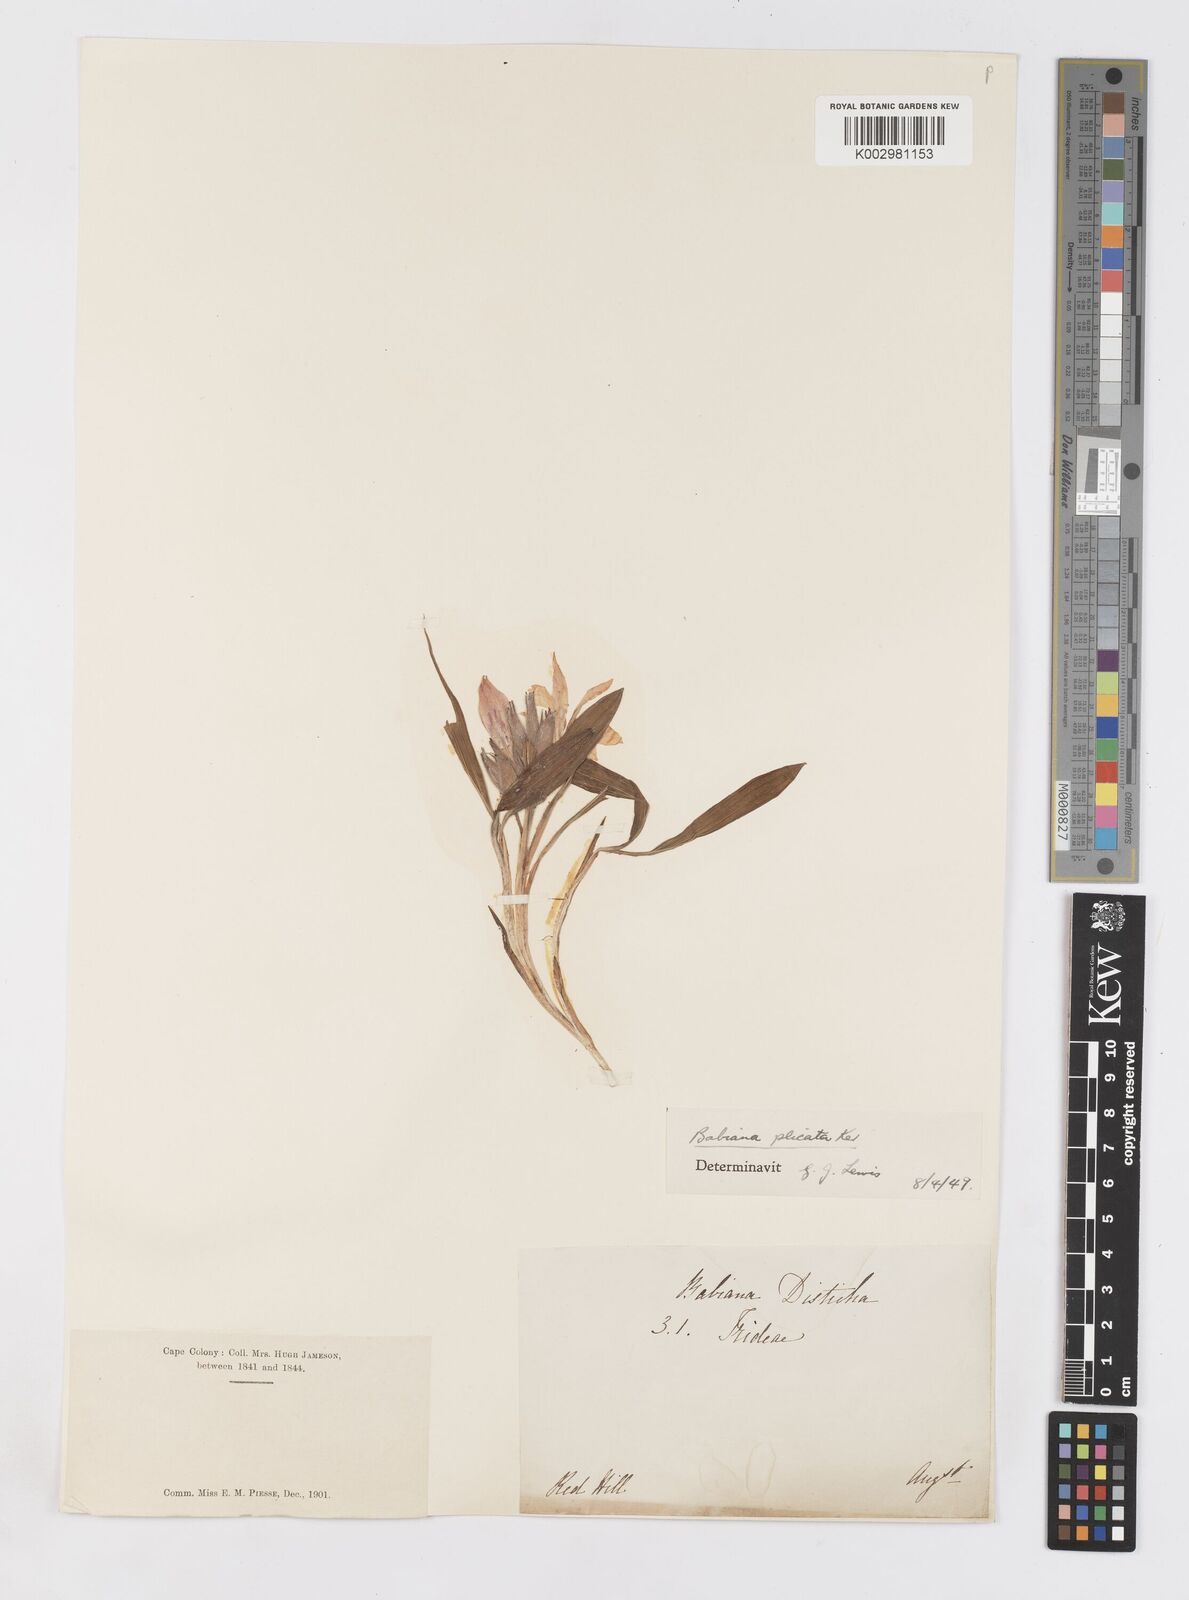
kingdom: Plantae
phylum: Tracheophyta
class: Liliopsida
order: Asparagales
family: Iridaceae
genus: Babiana
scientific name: Babiana fragrans
